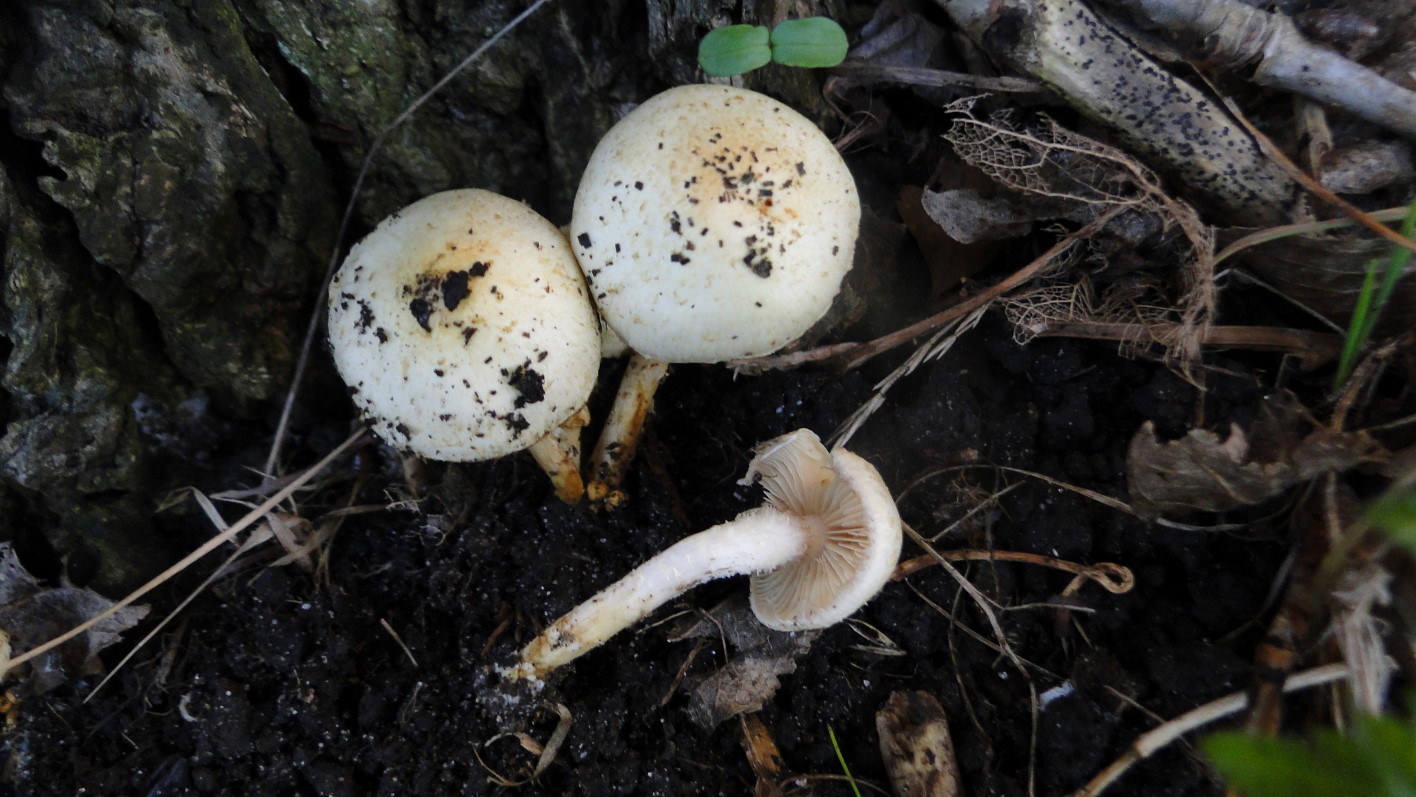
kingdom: Fungi
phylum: Basidiomycota
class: Agaricomycetes
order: Agaricales
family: Strophariaceae
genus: Pholiota
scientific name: Pholiota gummosa
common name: grøngul skælhat
